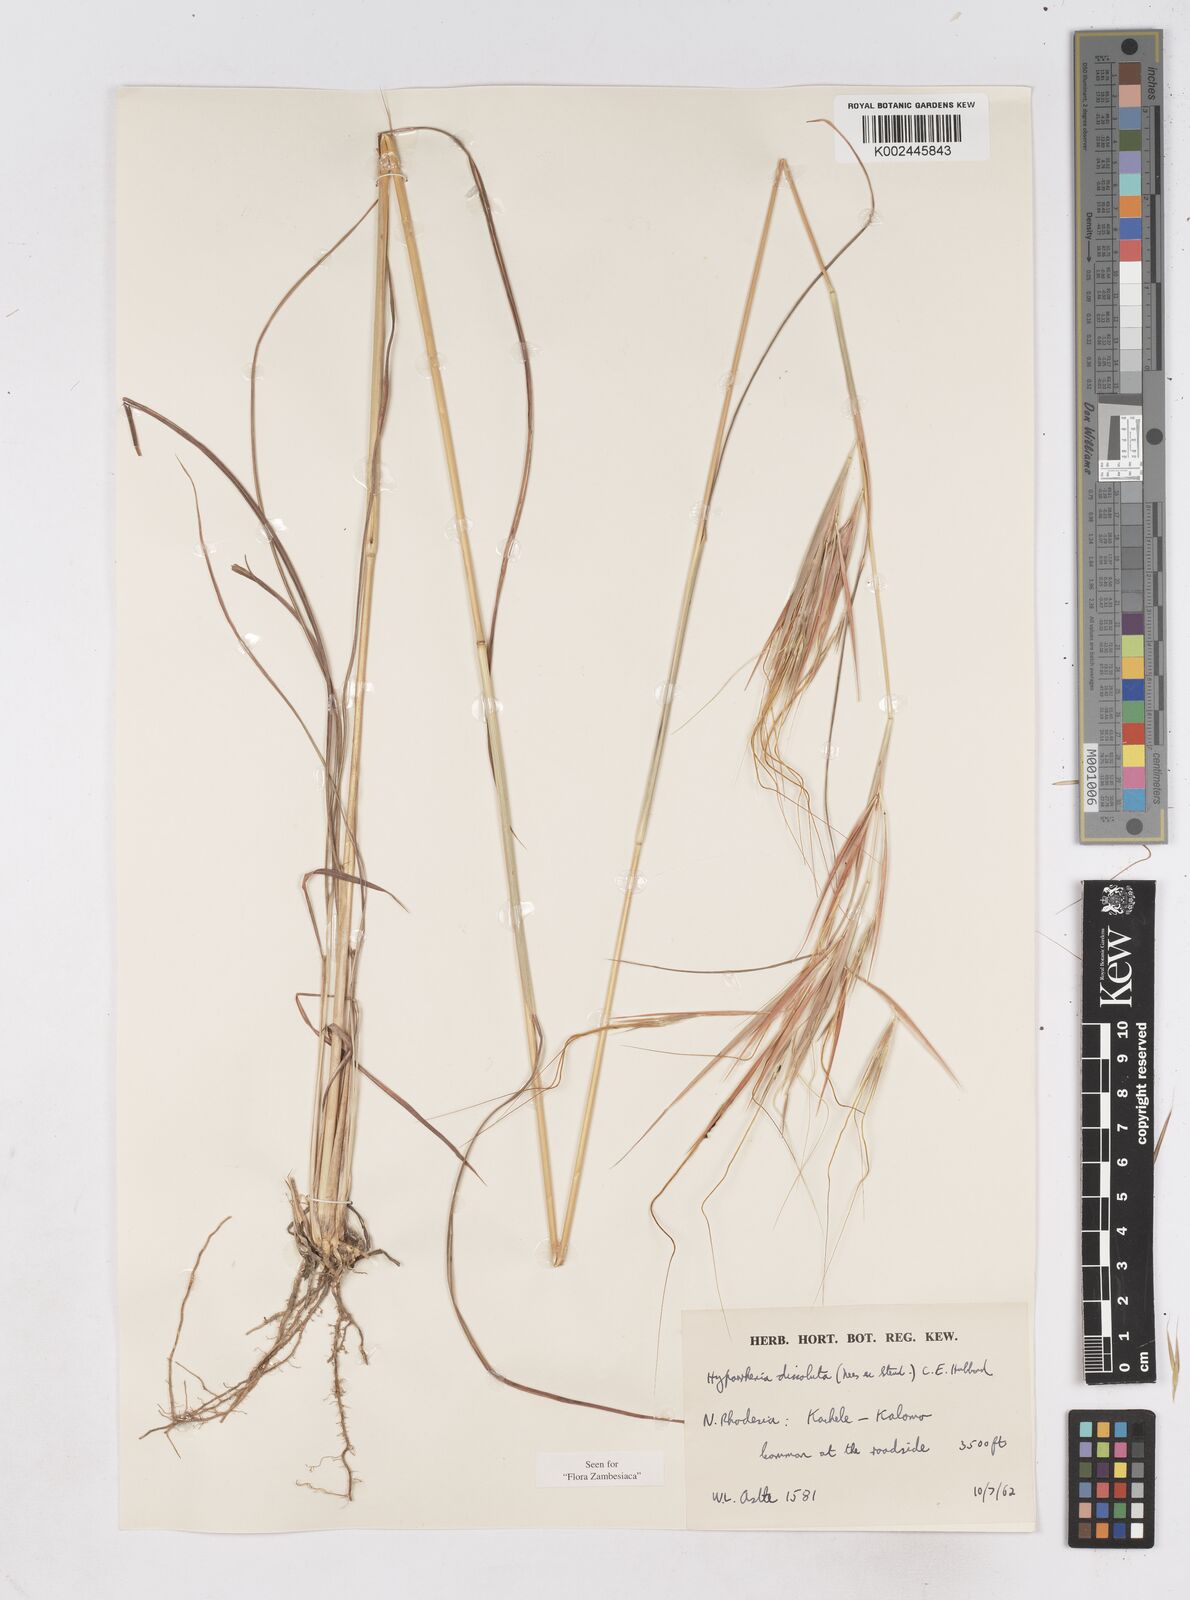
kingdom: Plantae
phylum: Tracheophyta
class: Liliopsida
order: Poales
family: Poaceae
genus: Hyperthelia
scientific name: Hyperthelia dissoluta
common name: Yellow thatching grass
